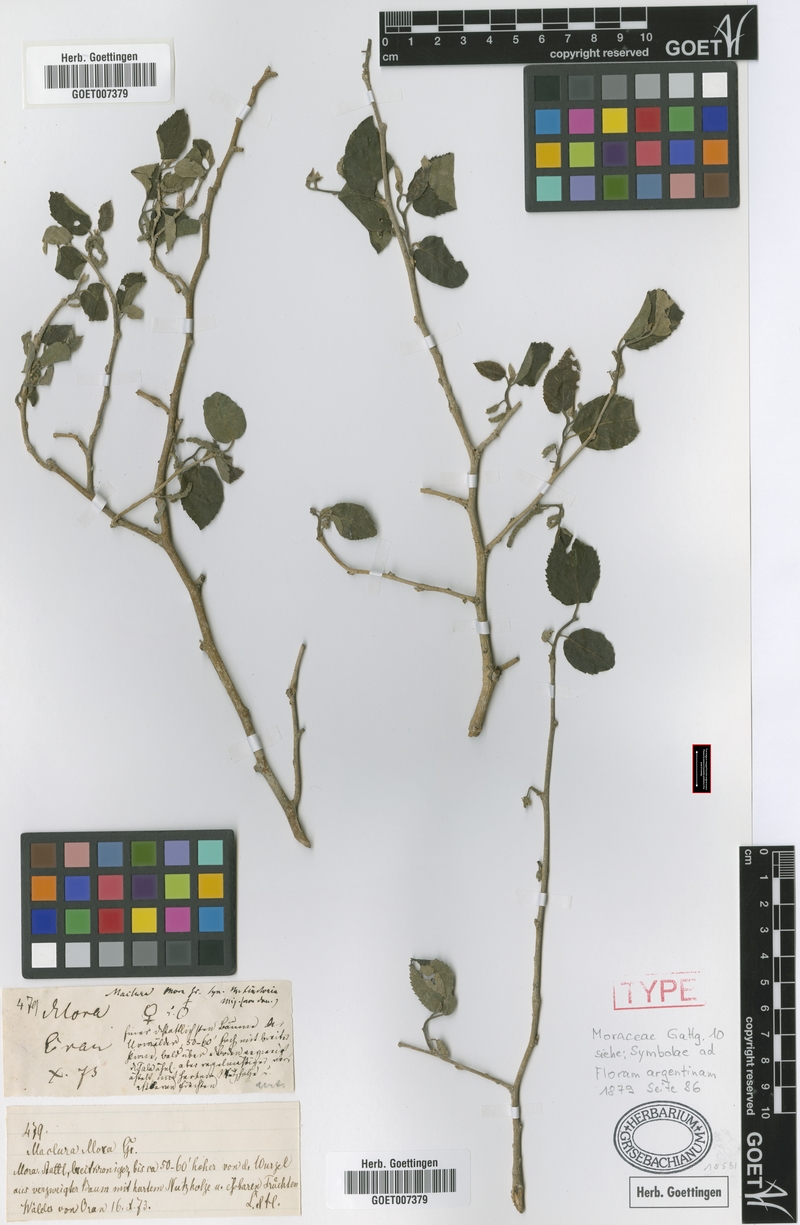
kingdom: Plantae
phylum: Tracheophyta
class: Magnoliopsida
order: Rosales
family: Moraceae
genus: Maclura
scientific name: Maclura tinctoria
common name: Old fustic
